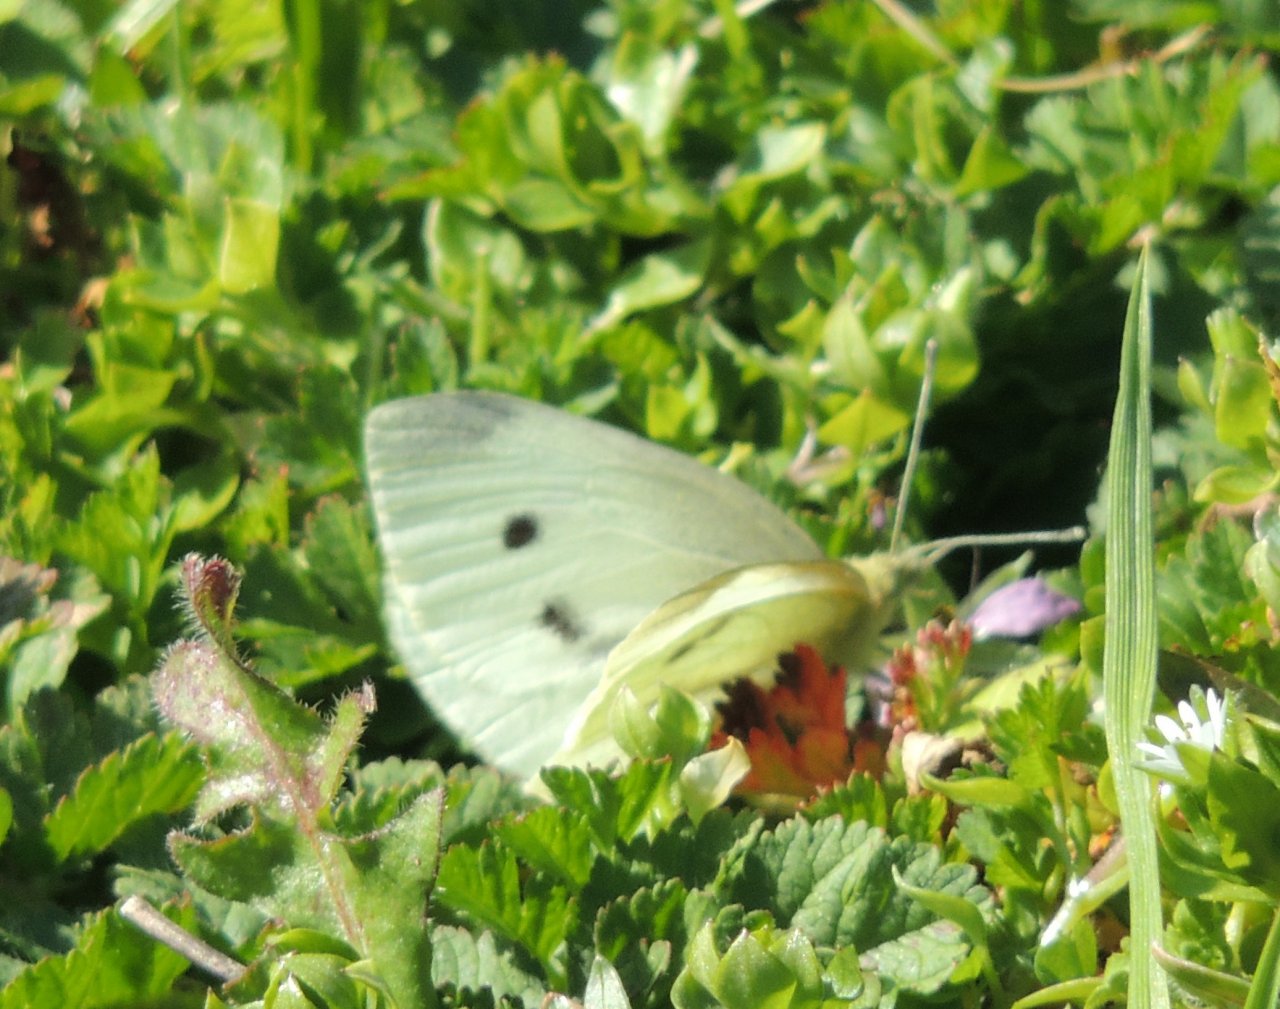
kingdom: Animalia
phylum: Arthropoda
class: Insecta
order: Lepidoptera
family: Pieridae
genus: Pieris
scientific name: Pieris rapae
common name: Cabbage White
